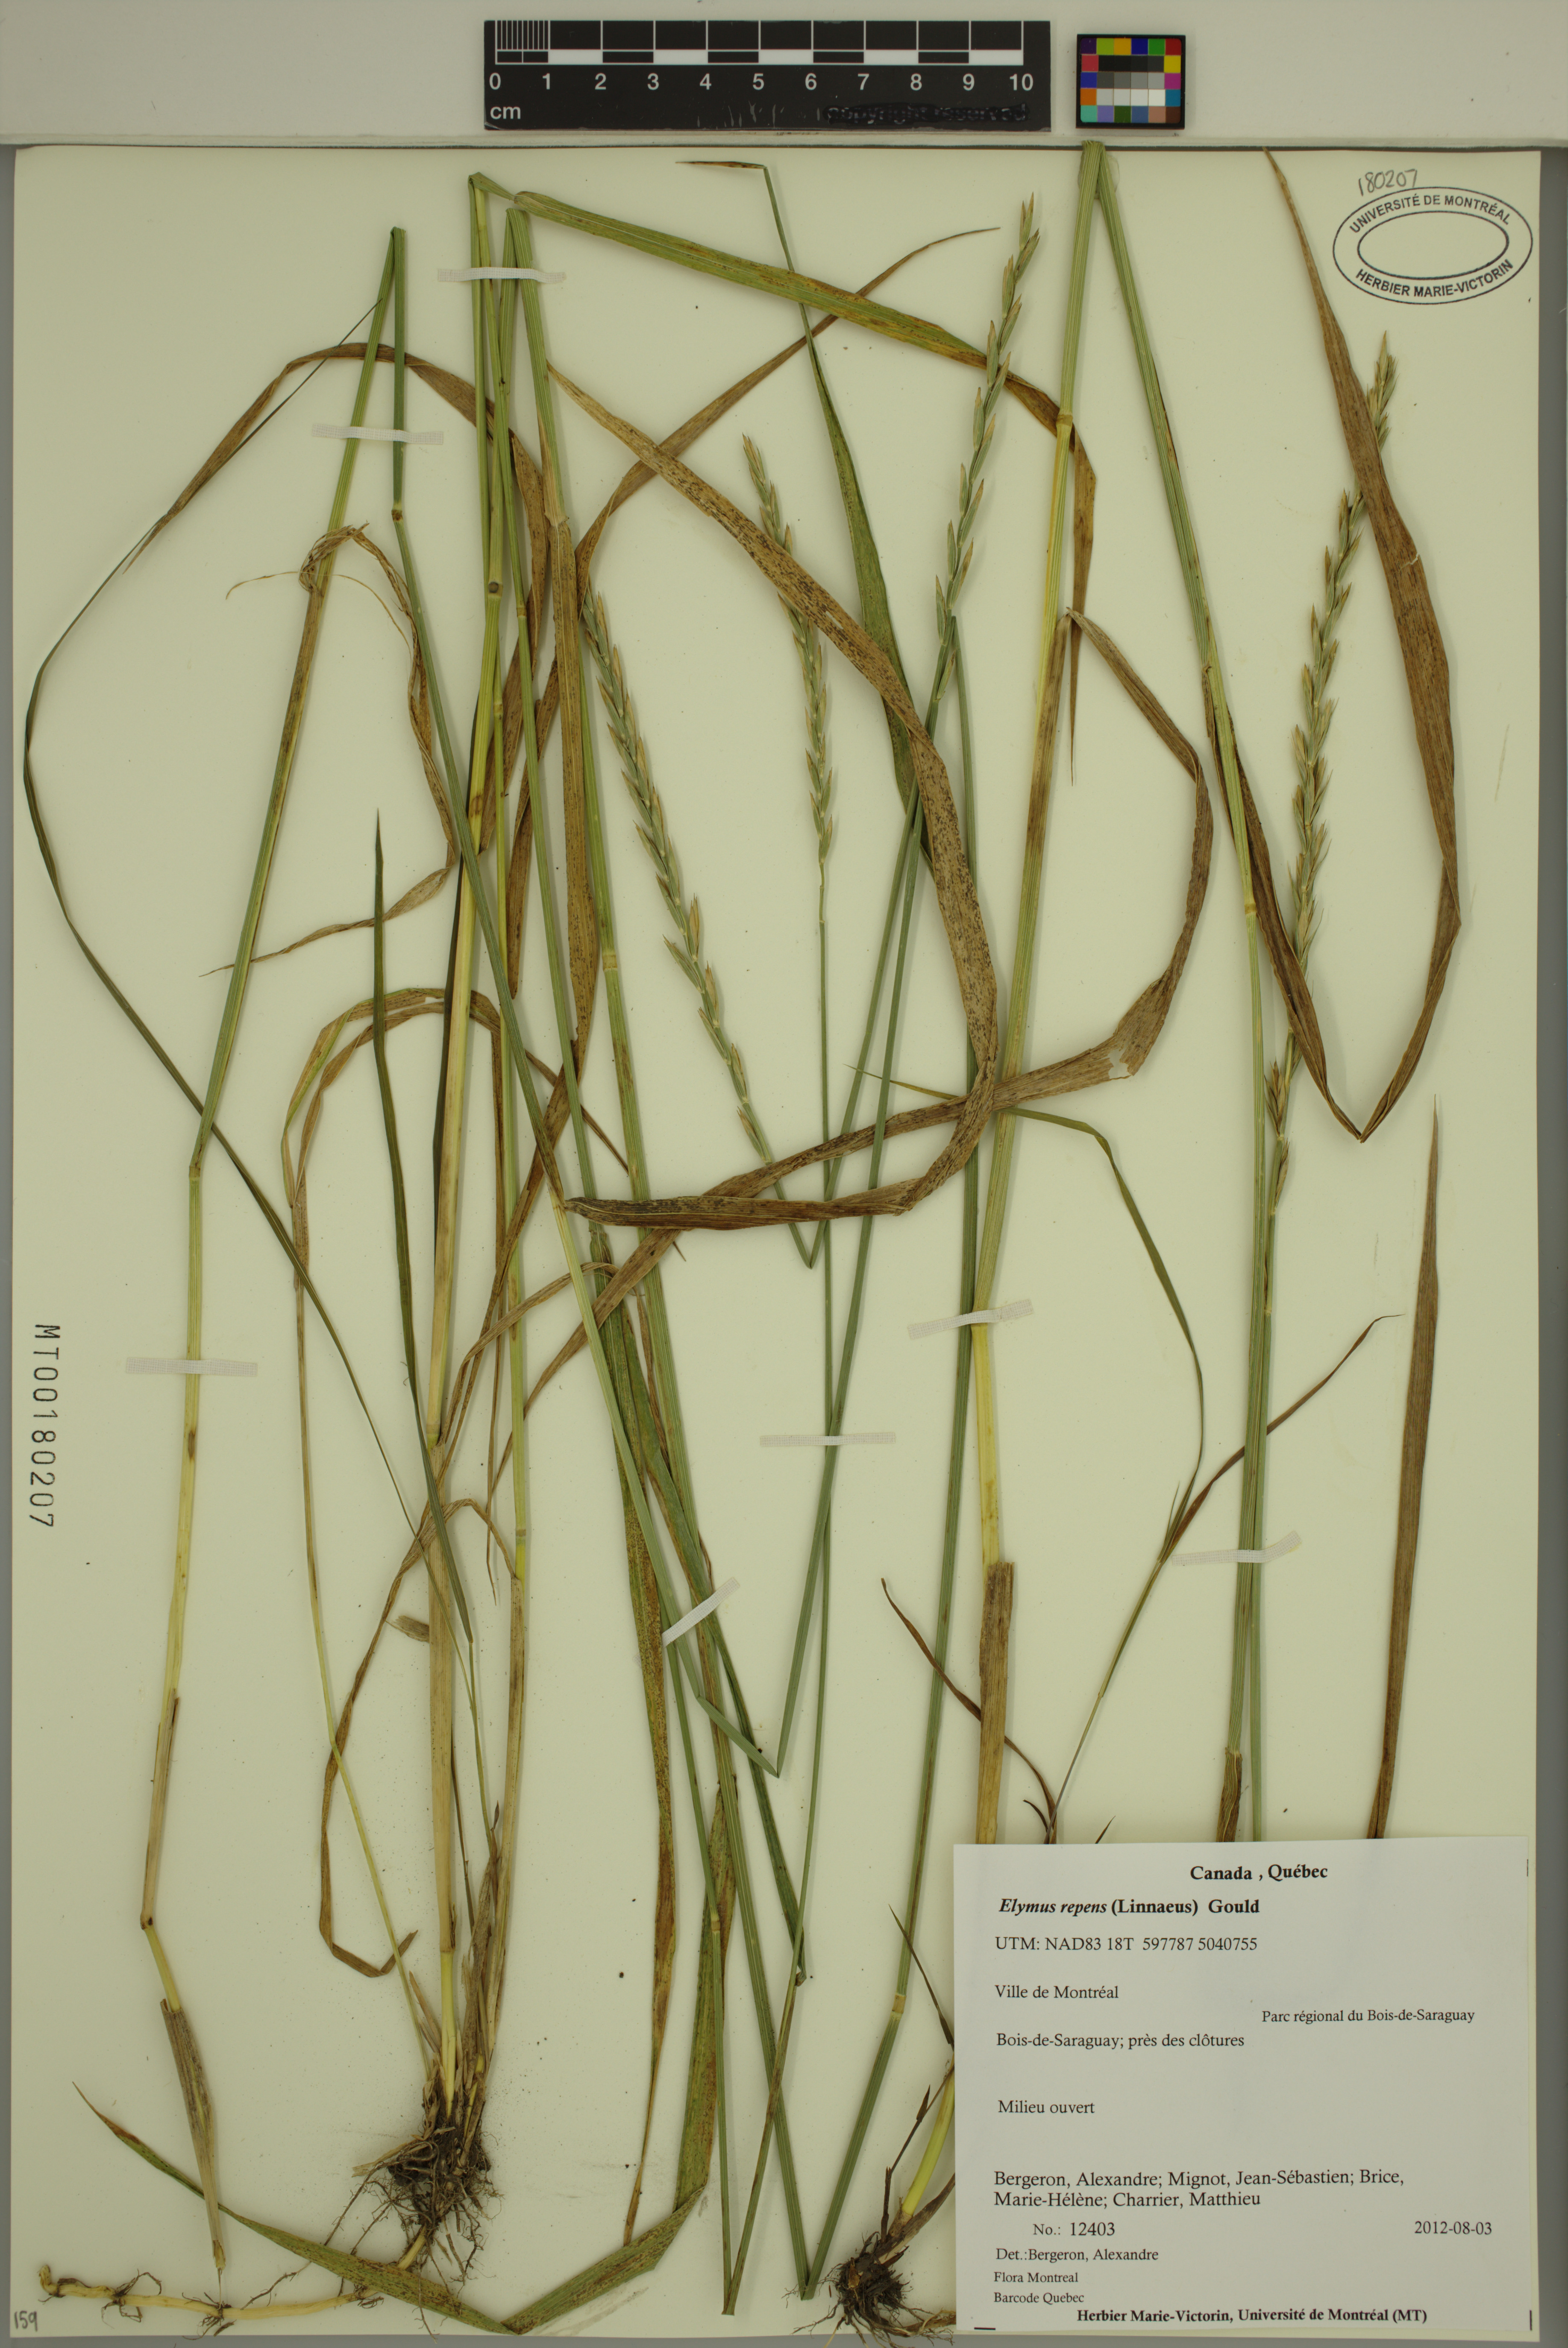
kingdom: Plantae
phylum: Tracheophyta
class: Liliopsida
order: Poales
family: Poaceae
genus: Elymus
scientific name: Elymus repens
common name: Quackgrass
